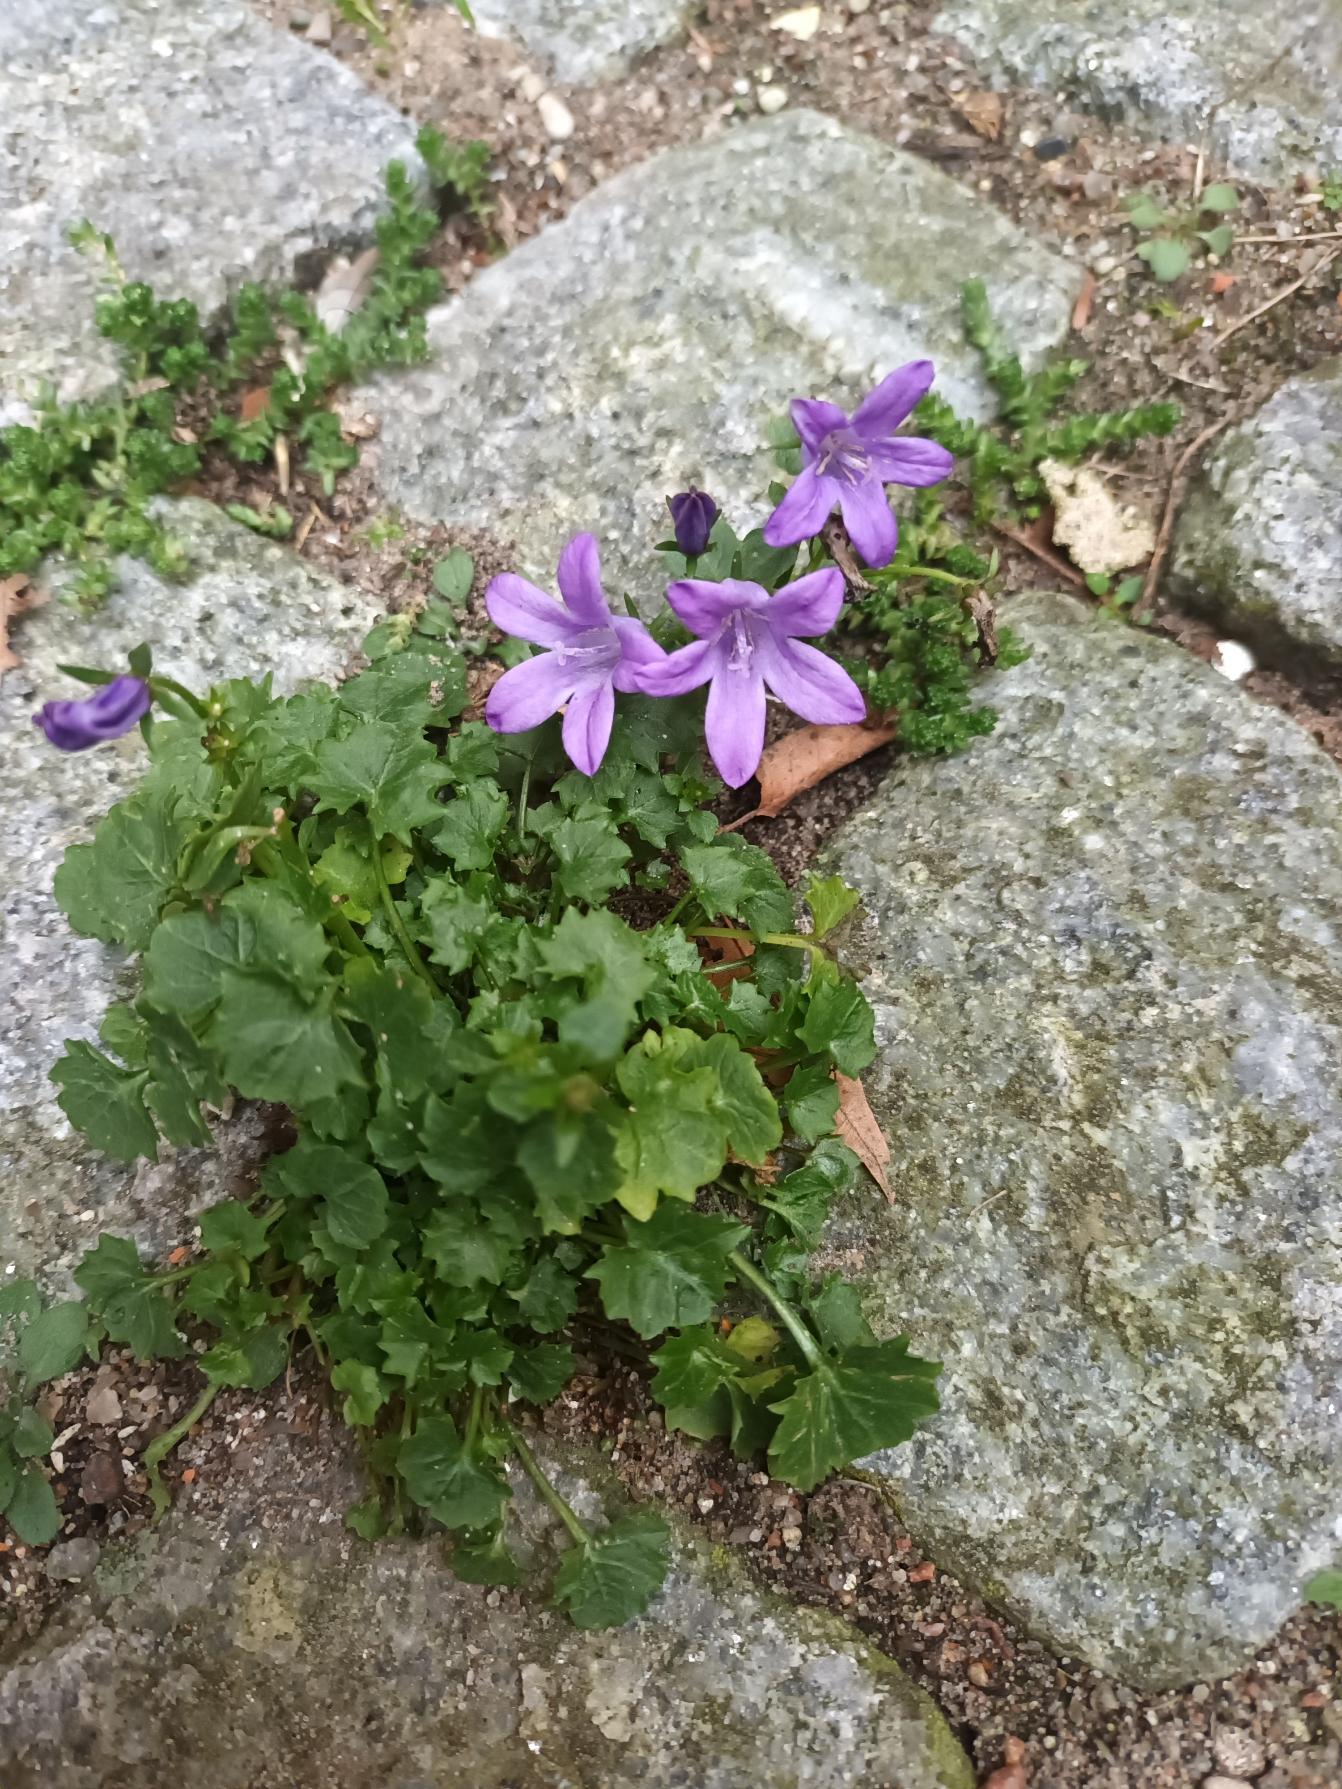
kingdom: Plantae
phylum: Tracheophyta
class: Magnoliopsida
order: Asterales
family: Campanulaceae
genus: Campanula
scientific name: Campanula portenschlagiana
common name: Krybe-klokke
